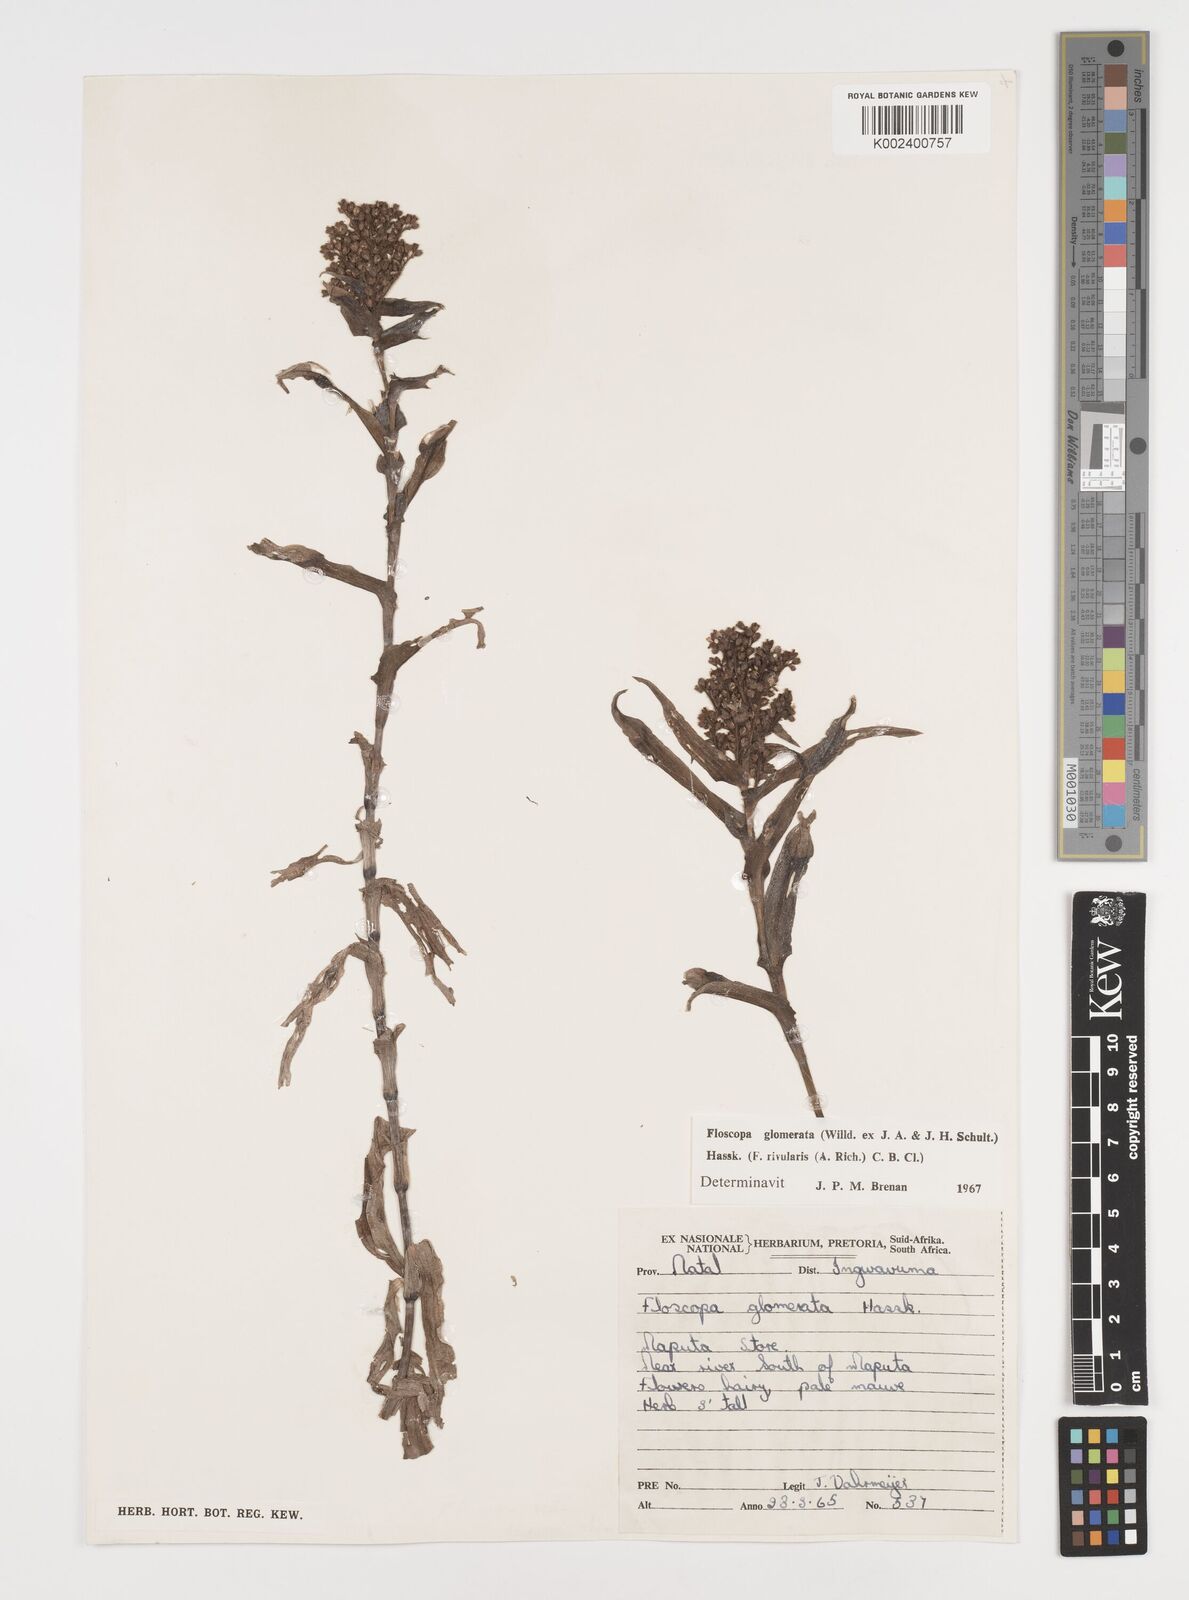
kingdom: Plantae
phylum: Tracheophyta
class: Liliopsida
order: Commelinales
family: Commelinaceae
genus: Floscopa
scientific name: Floscopa glomerata
